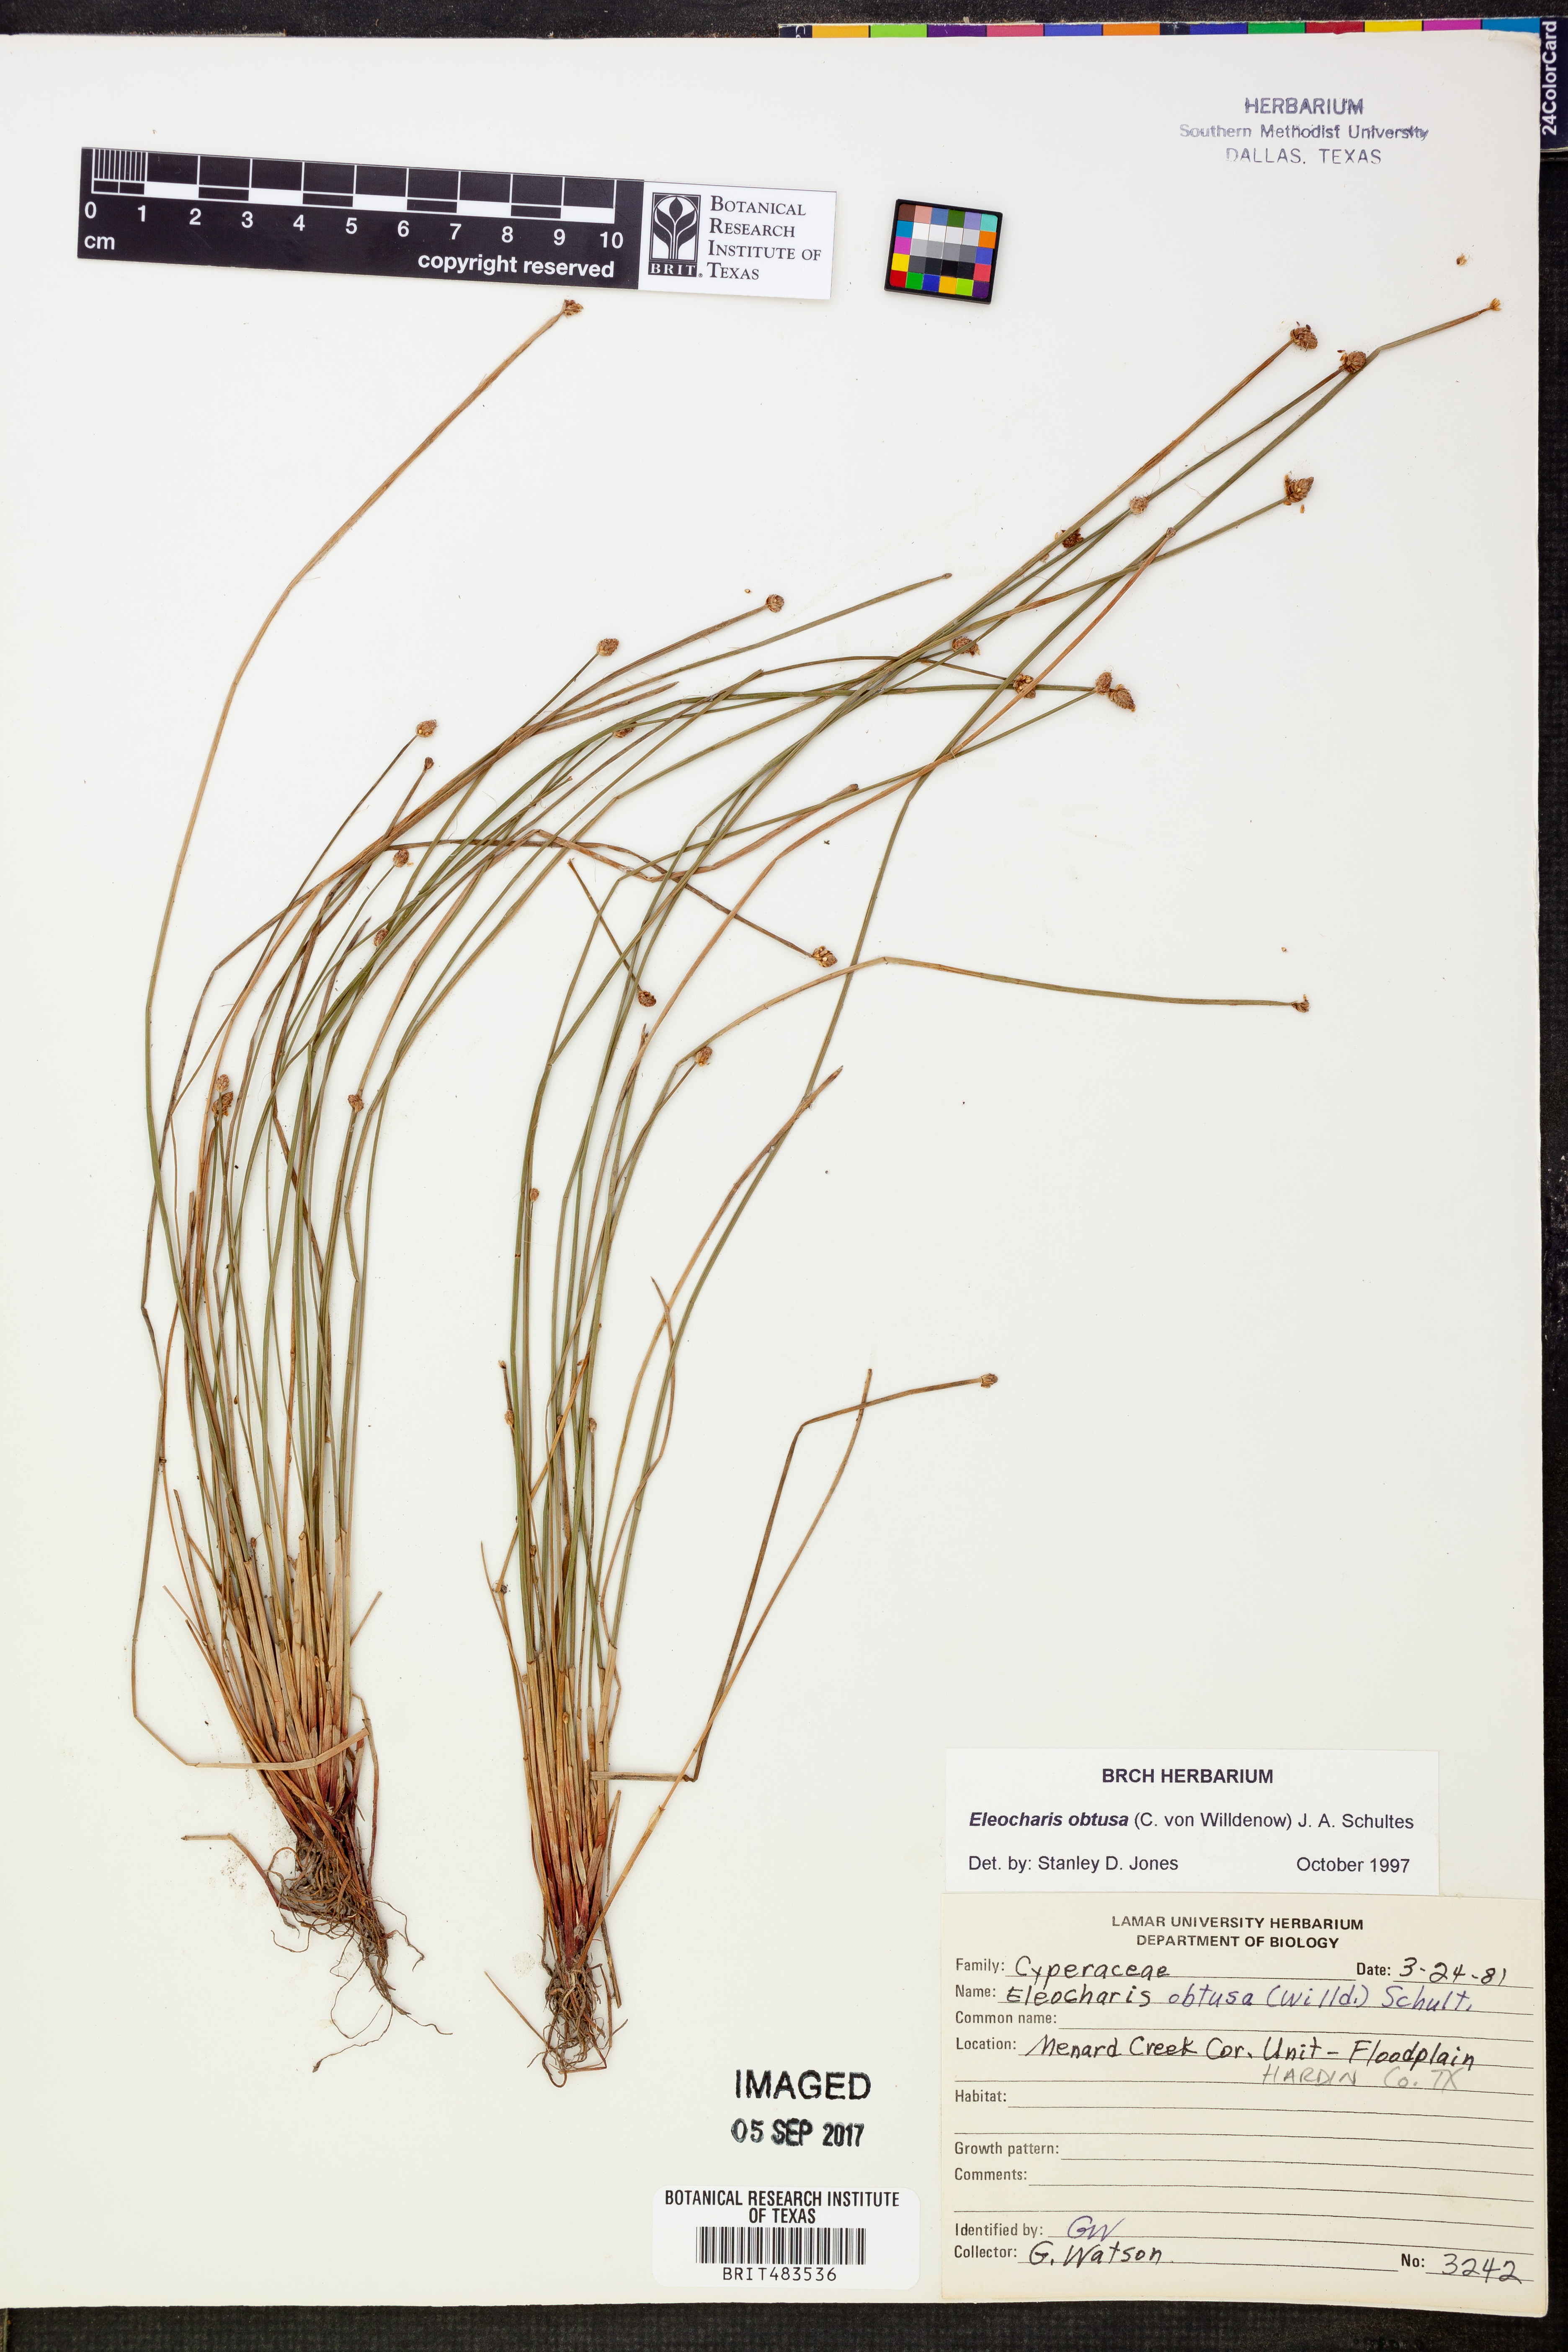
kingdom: Plantae
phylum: Tracheophyta
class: Liliopsida
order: Poales
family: Cyperaceae
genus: Eleocharis
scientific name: Eleocharis obtusa
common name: Blunt spikerush
